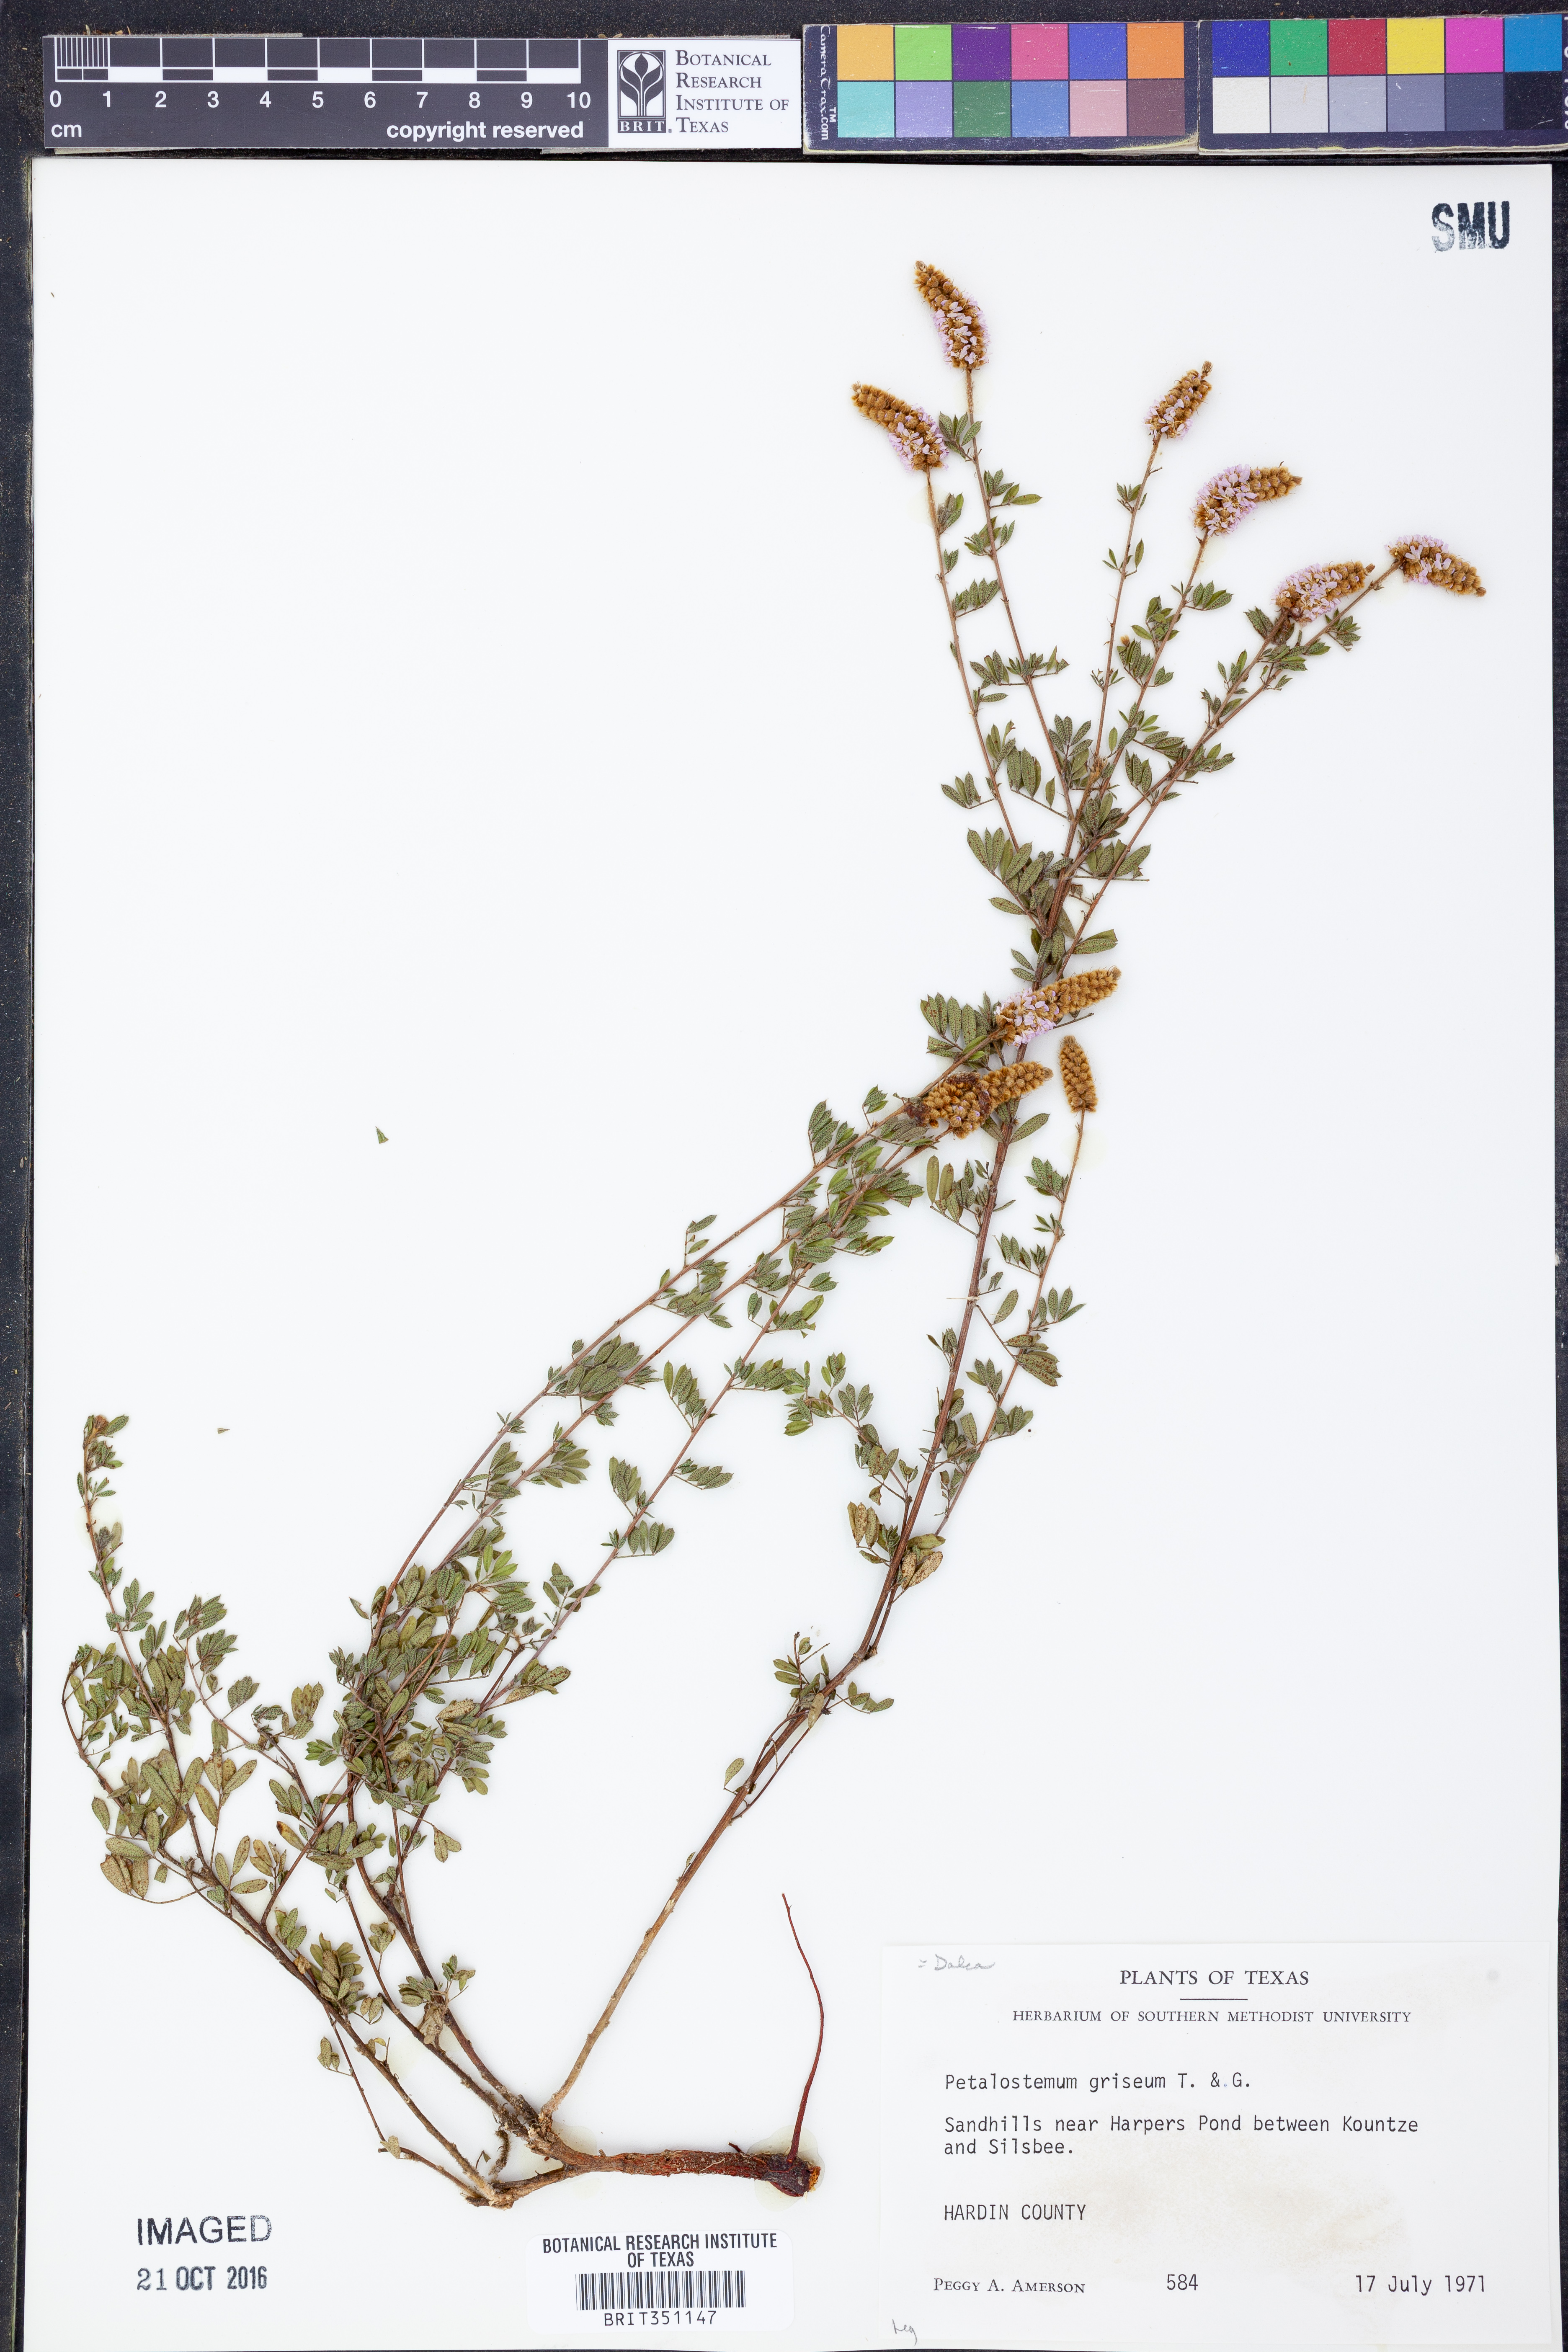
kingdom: Plantae
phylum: Tracheophyta
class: Magnoliopsida
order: Fabales
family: Fabaceae
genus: Dalea
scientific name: Dalea villosa
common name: Silky prairie-clover
